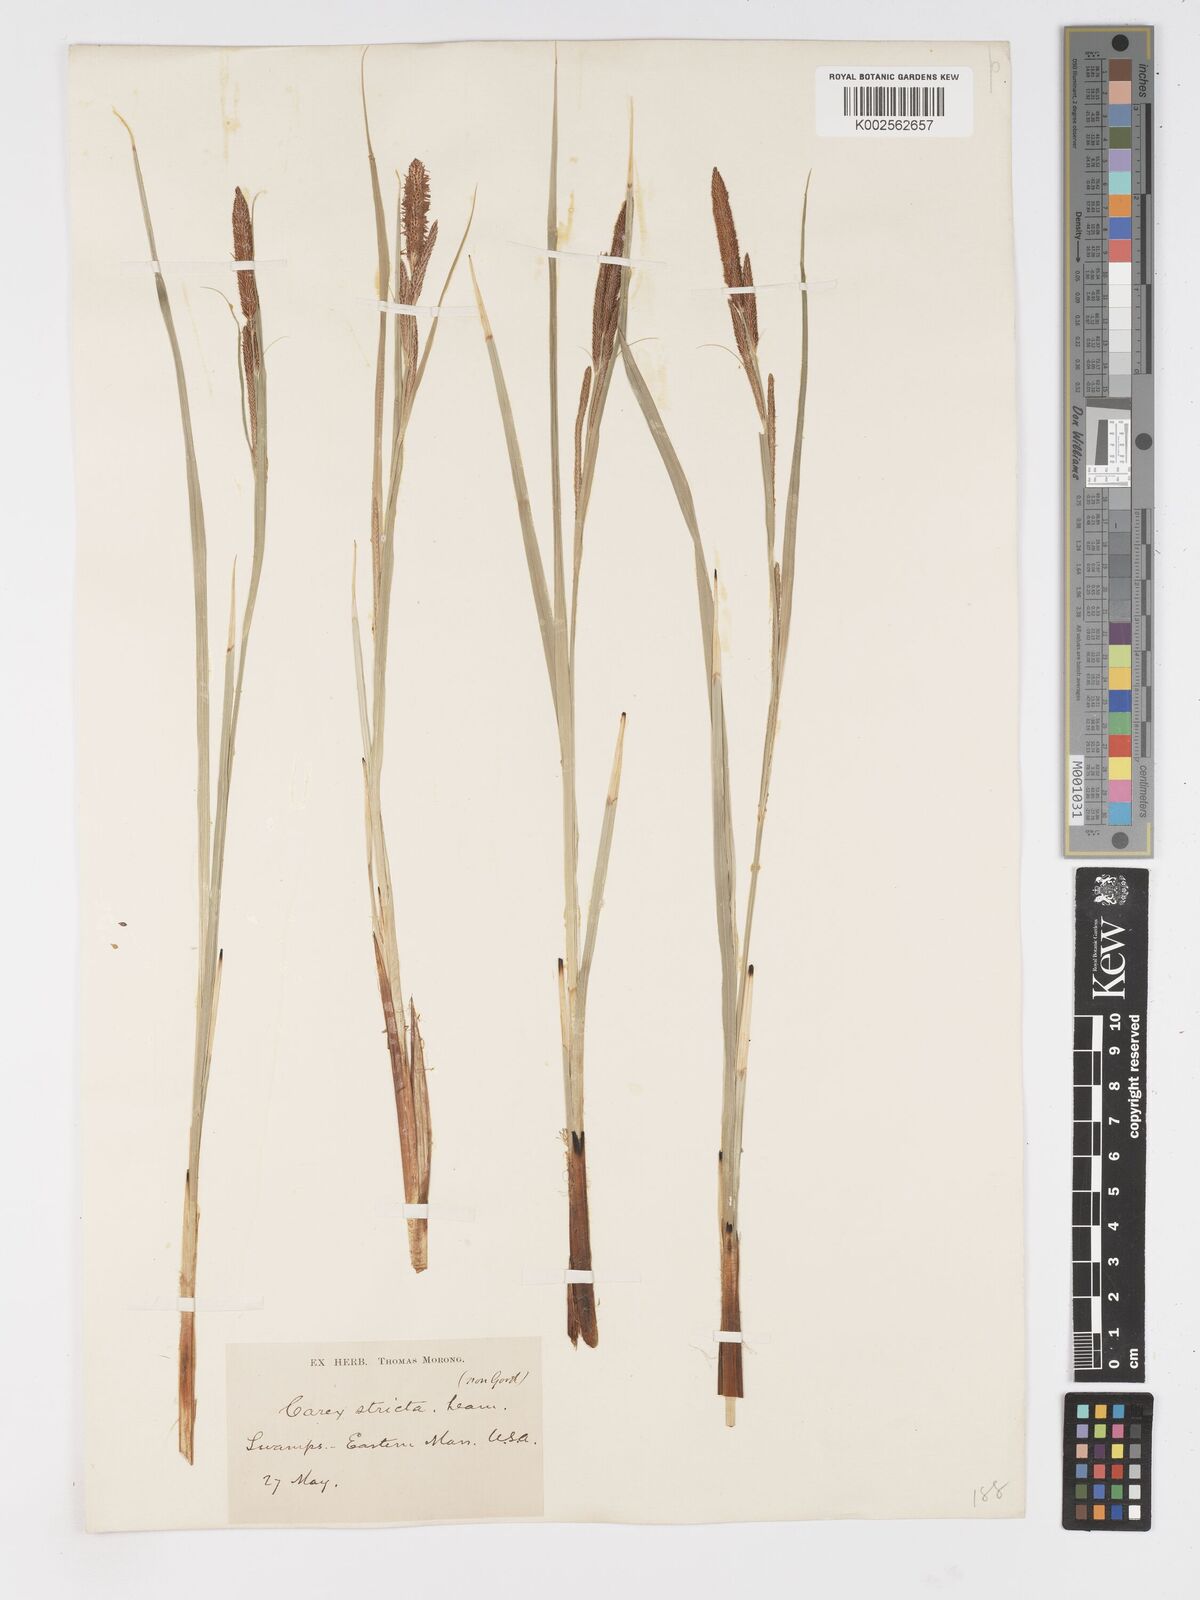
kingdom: Plantae
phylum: Tracheophyta
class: Liliopsida
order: Poales
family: Cyperaceae
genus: Carex
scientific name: Carex stricta
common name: Hummock sedge
